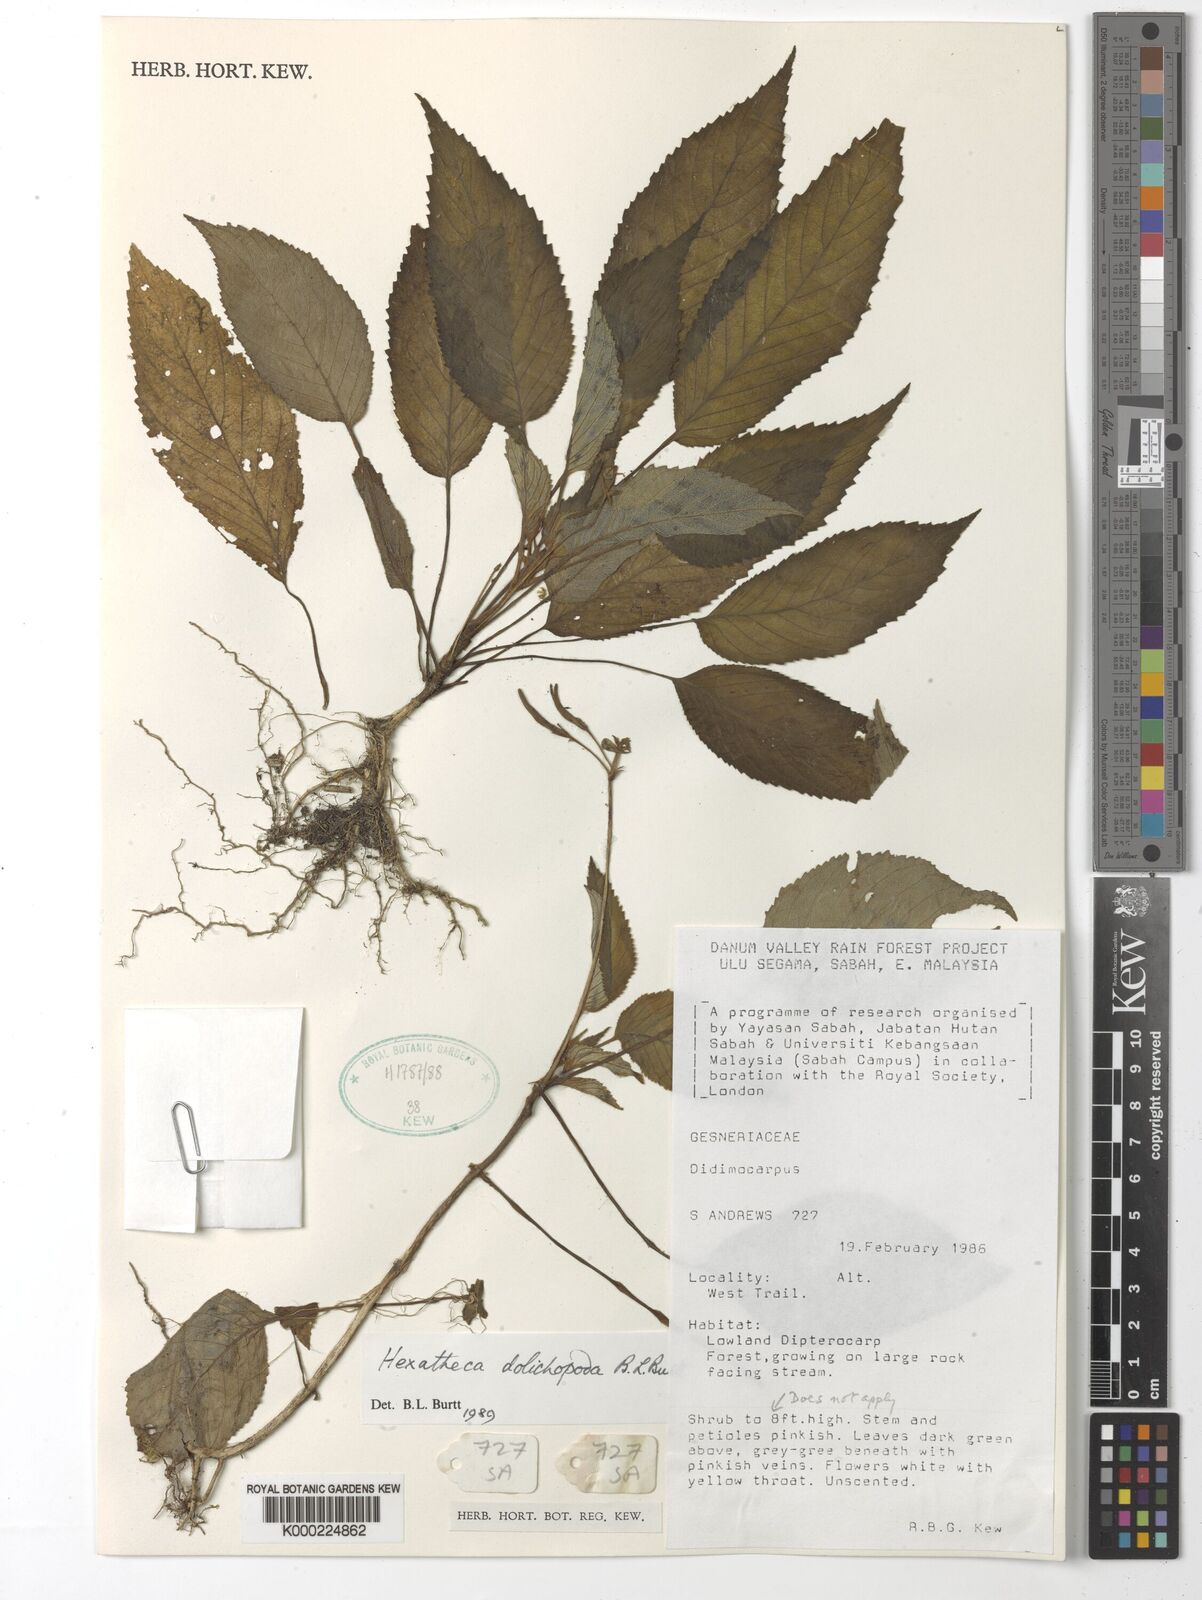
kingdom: Plantae
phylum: Tracheophyta
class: Magnoliopsida
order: Lamiales
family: Gesneriaceae
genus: Hexatheca
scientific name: Hexatheca dolichopoda
